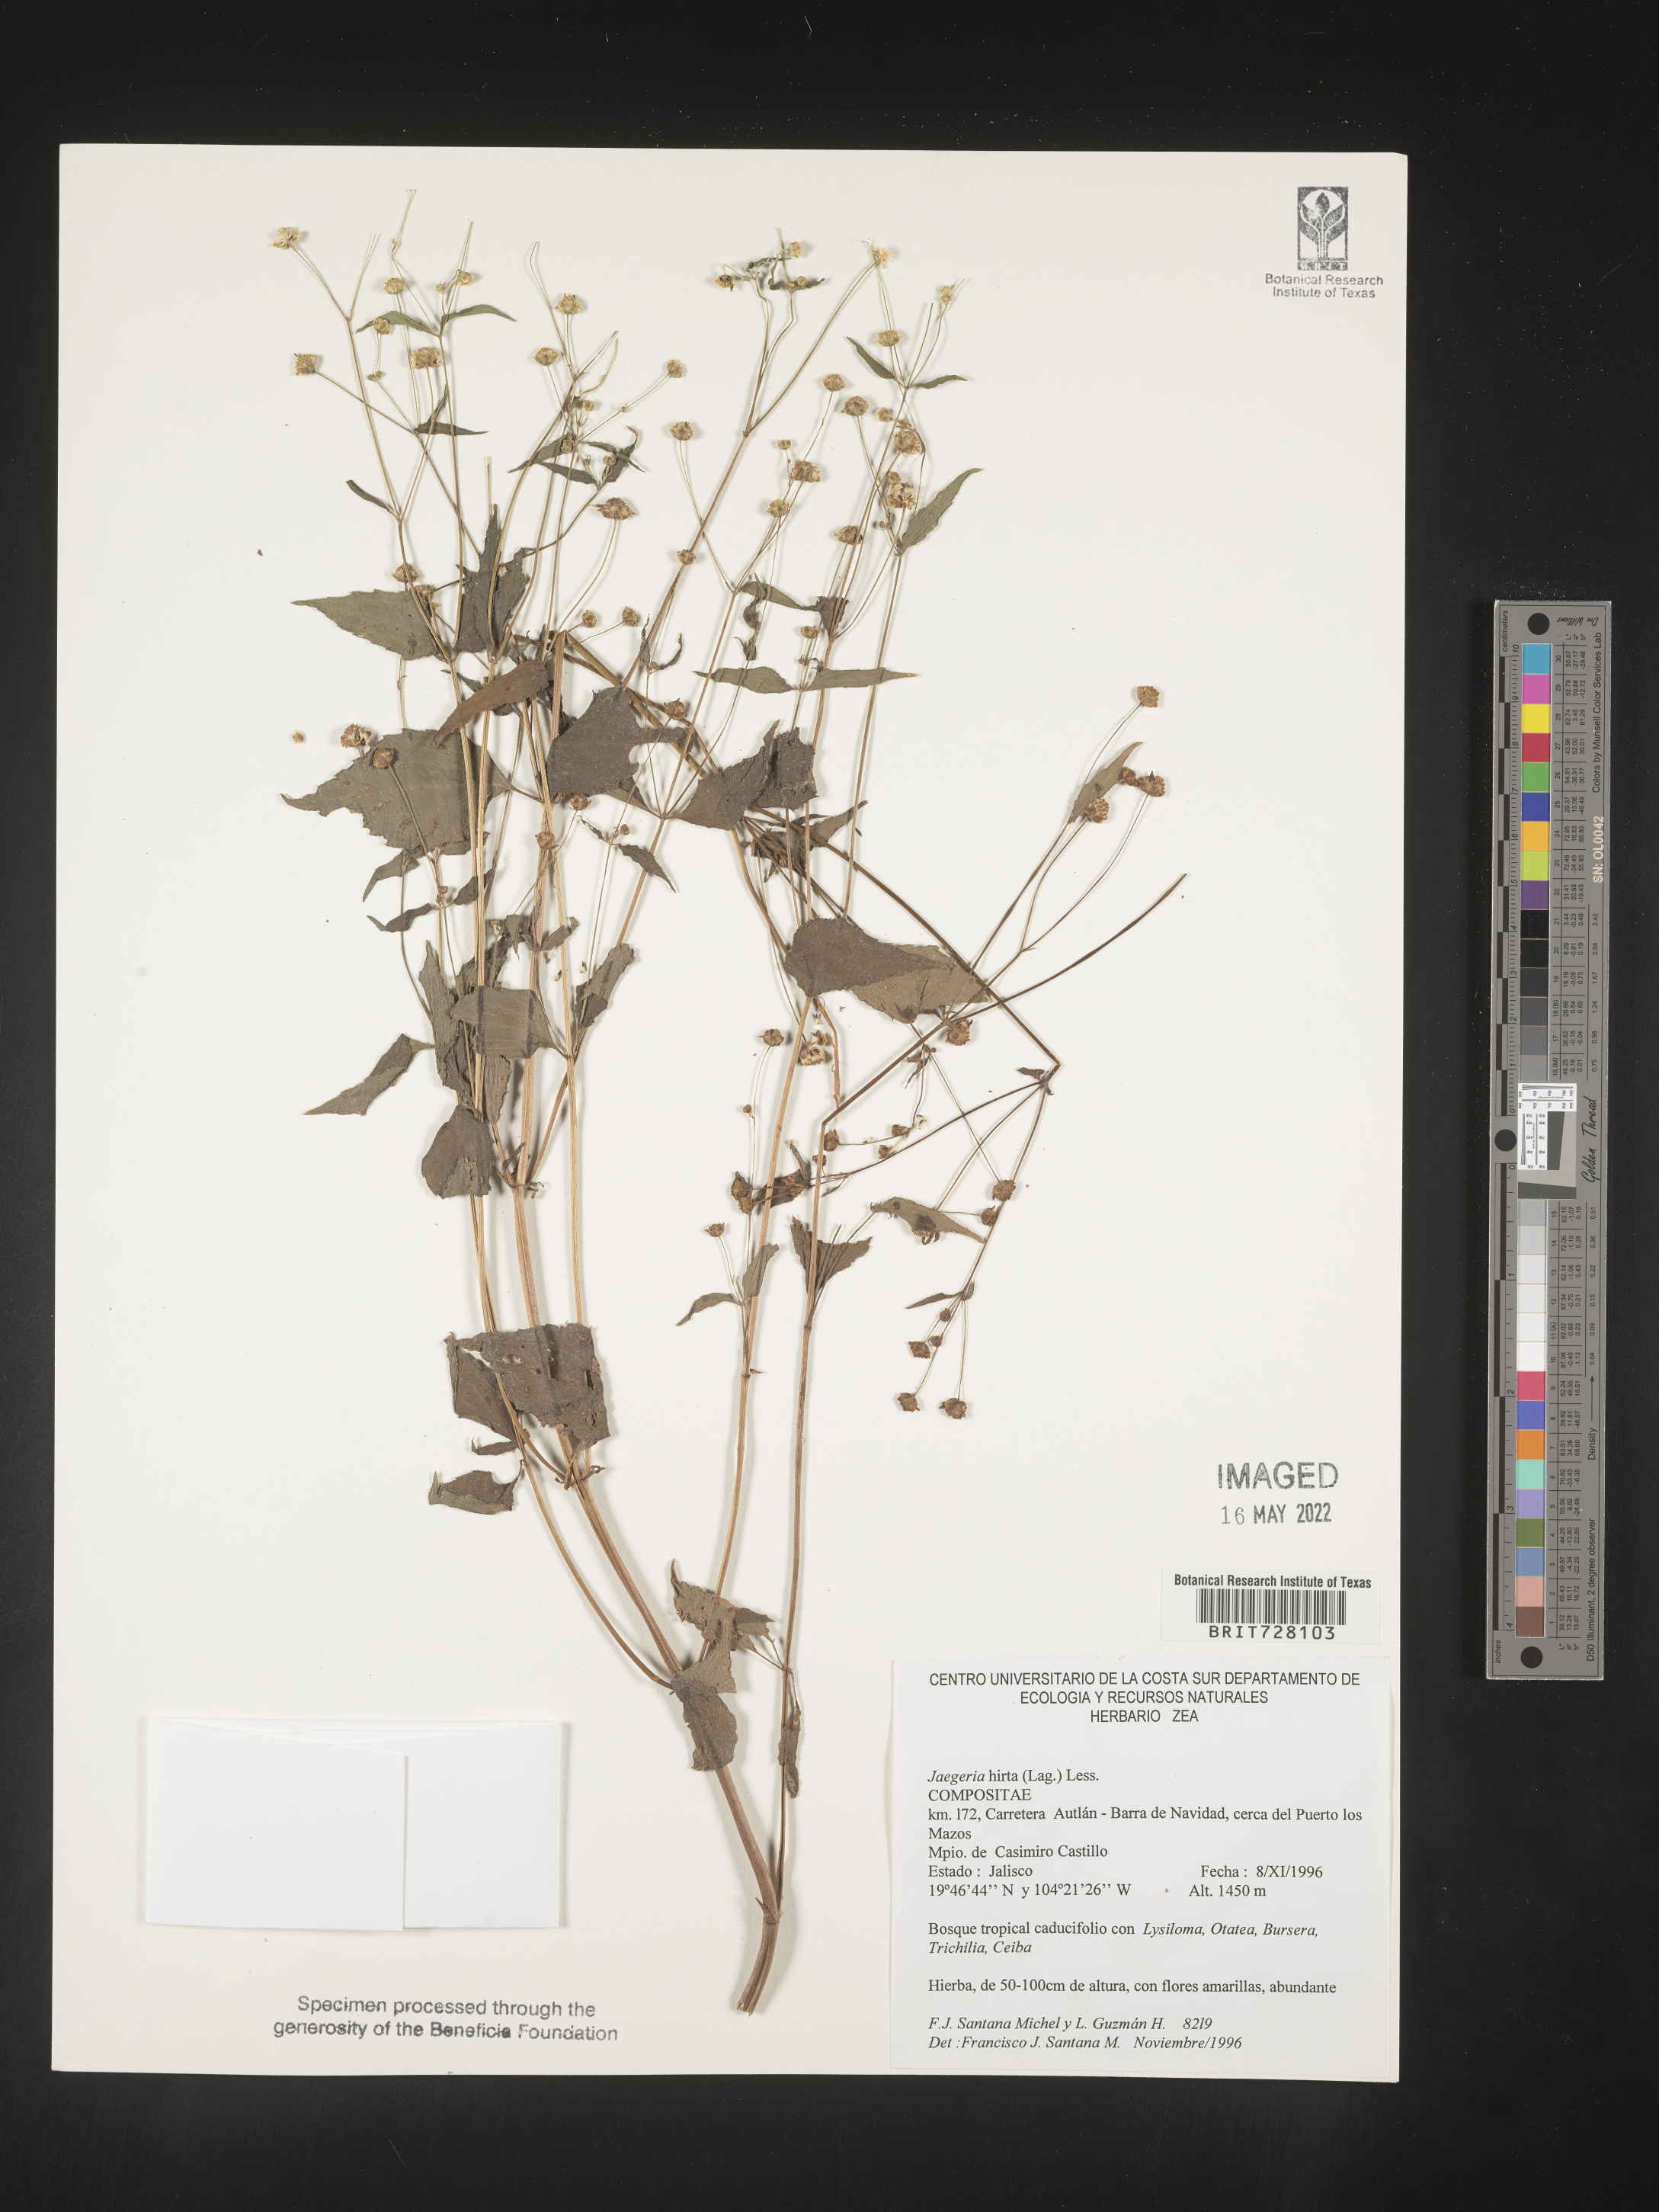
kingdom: Plantae
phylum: Tracheophyta
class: Magnoliopsida
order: Asterales
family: Asteraceae
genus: Jaegeria
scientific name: Jaegeria
